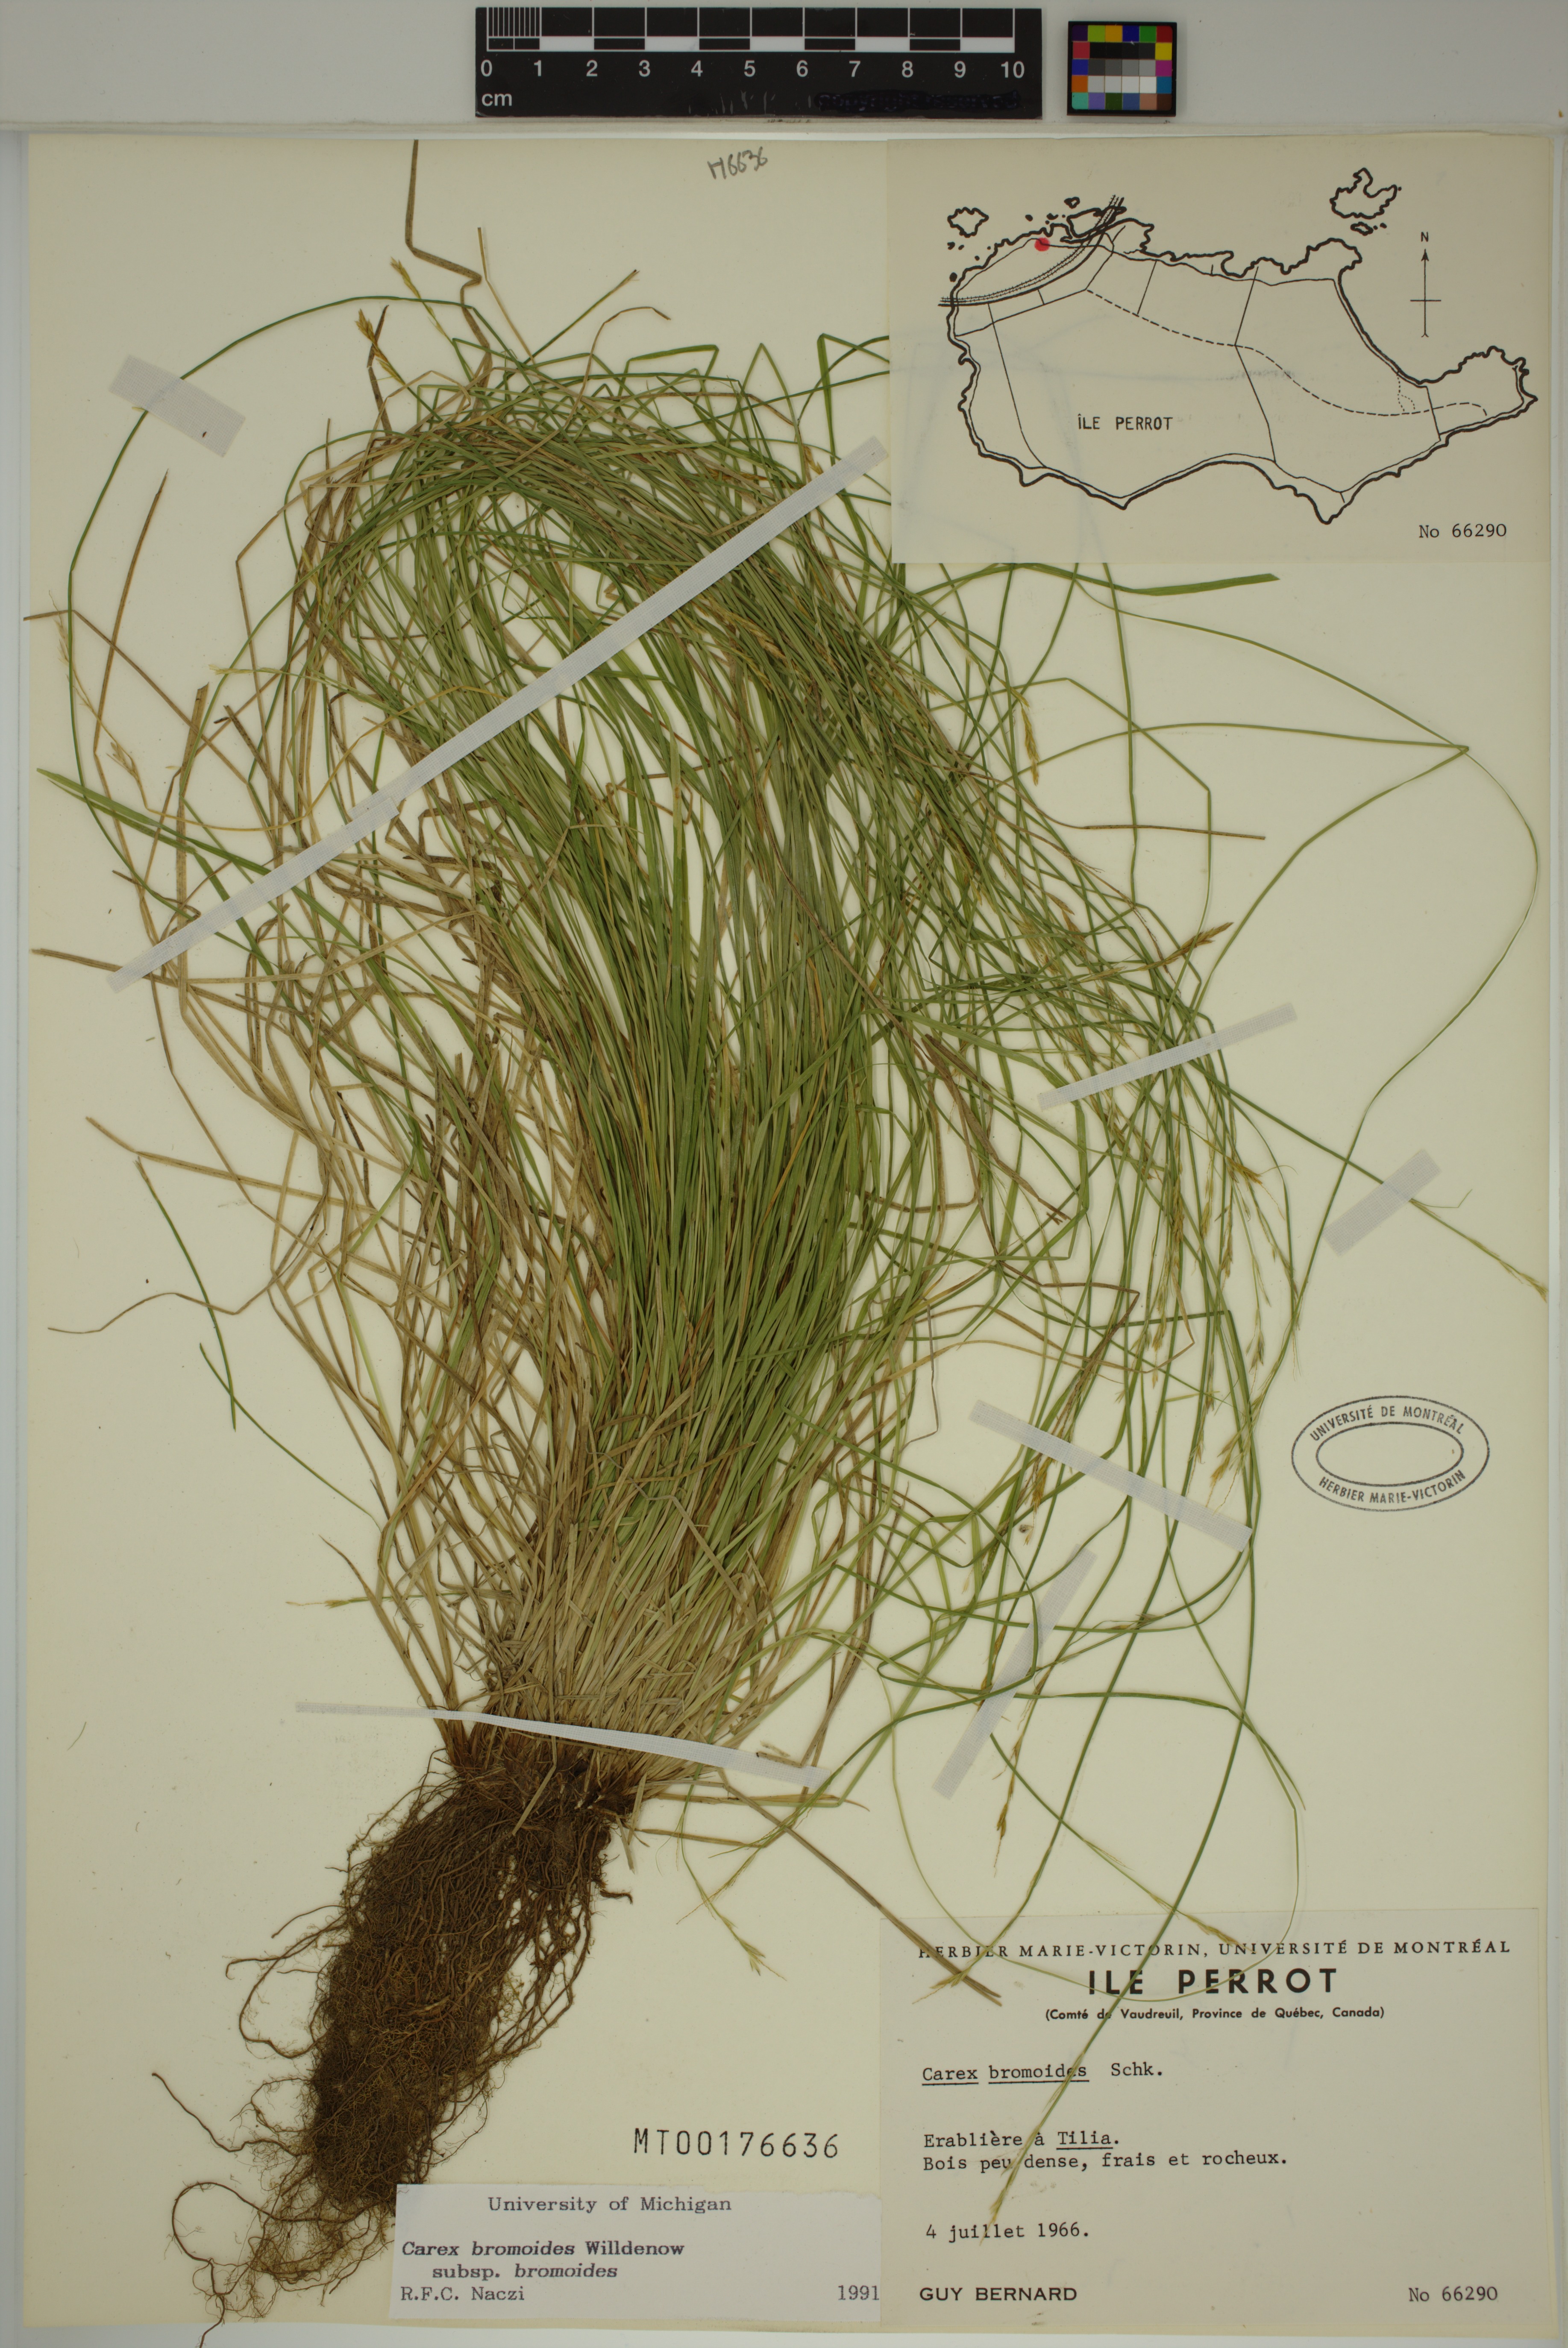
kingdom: Plantae
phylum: Tracheophyta
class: Liliopsida
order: Poales
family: Cyperaceae
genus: Carex
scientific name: Carex bromoides
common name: Brome hummock sedge
